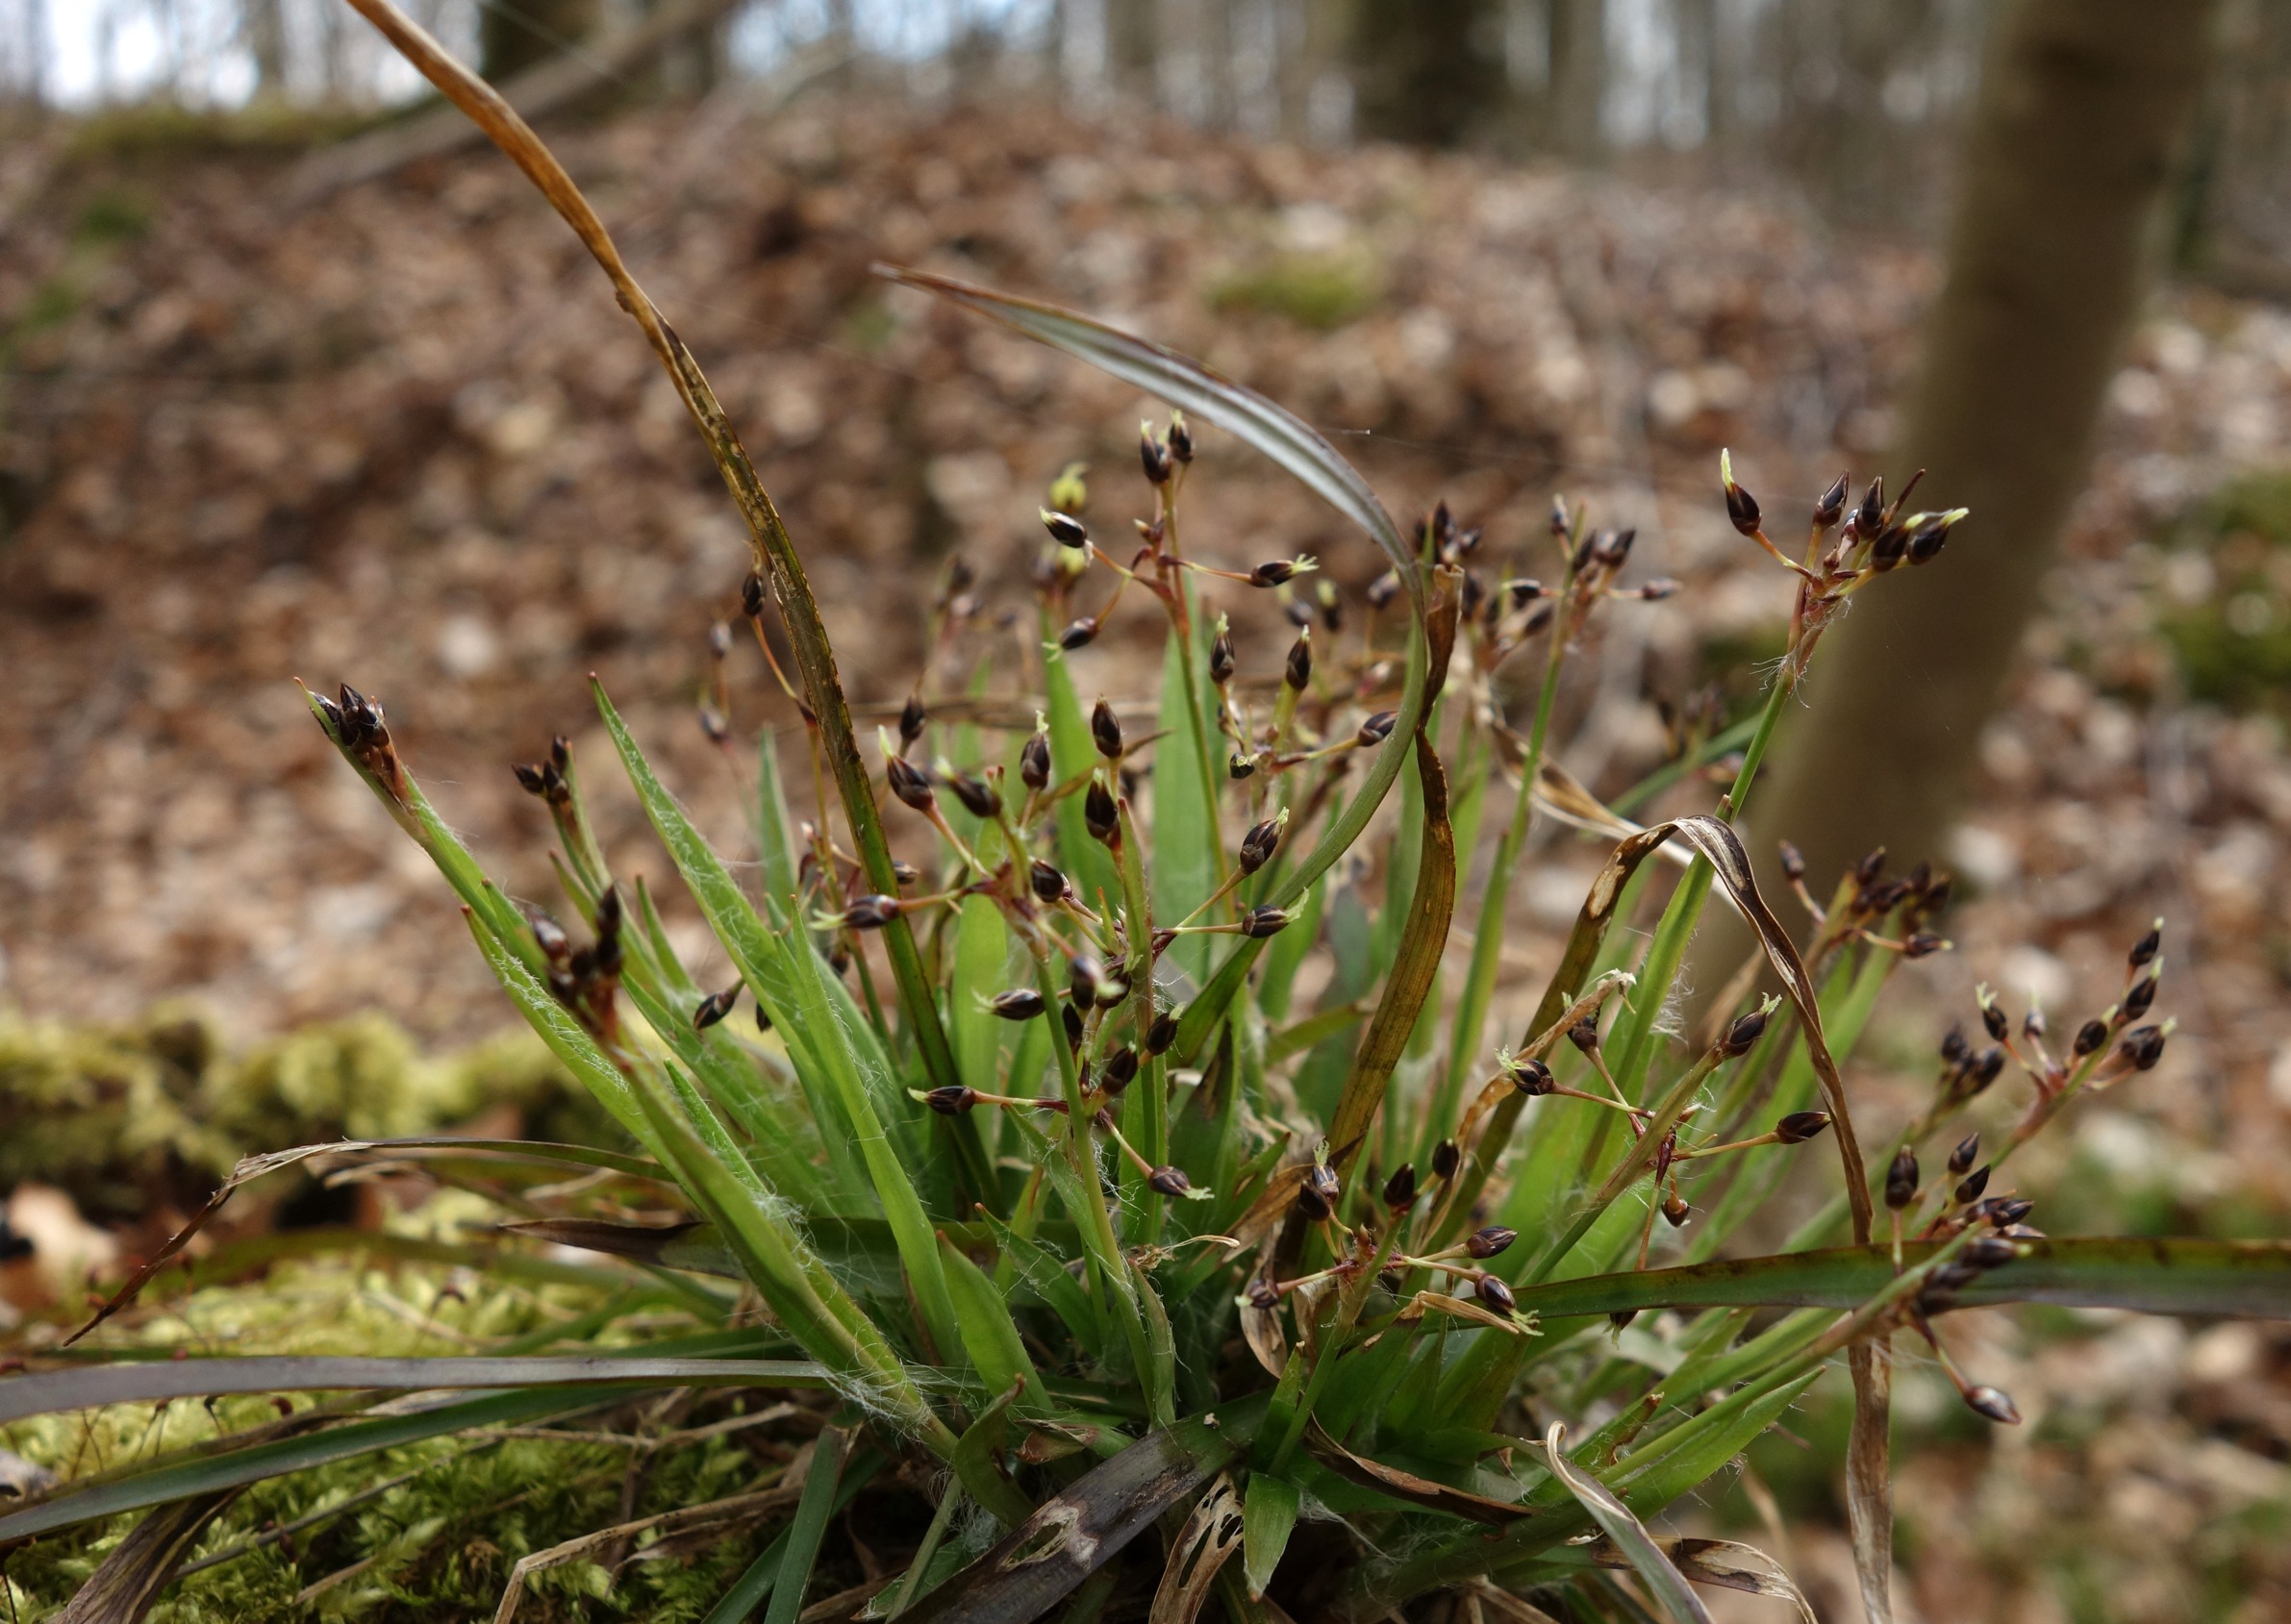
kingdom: Plantae
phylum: Tracheophyta
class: Liliopsida
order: Poales
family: Juncaceae
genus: Luzula
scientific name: Luzula pilosa
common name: Håret frytle
